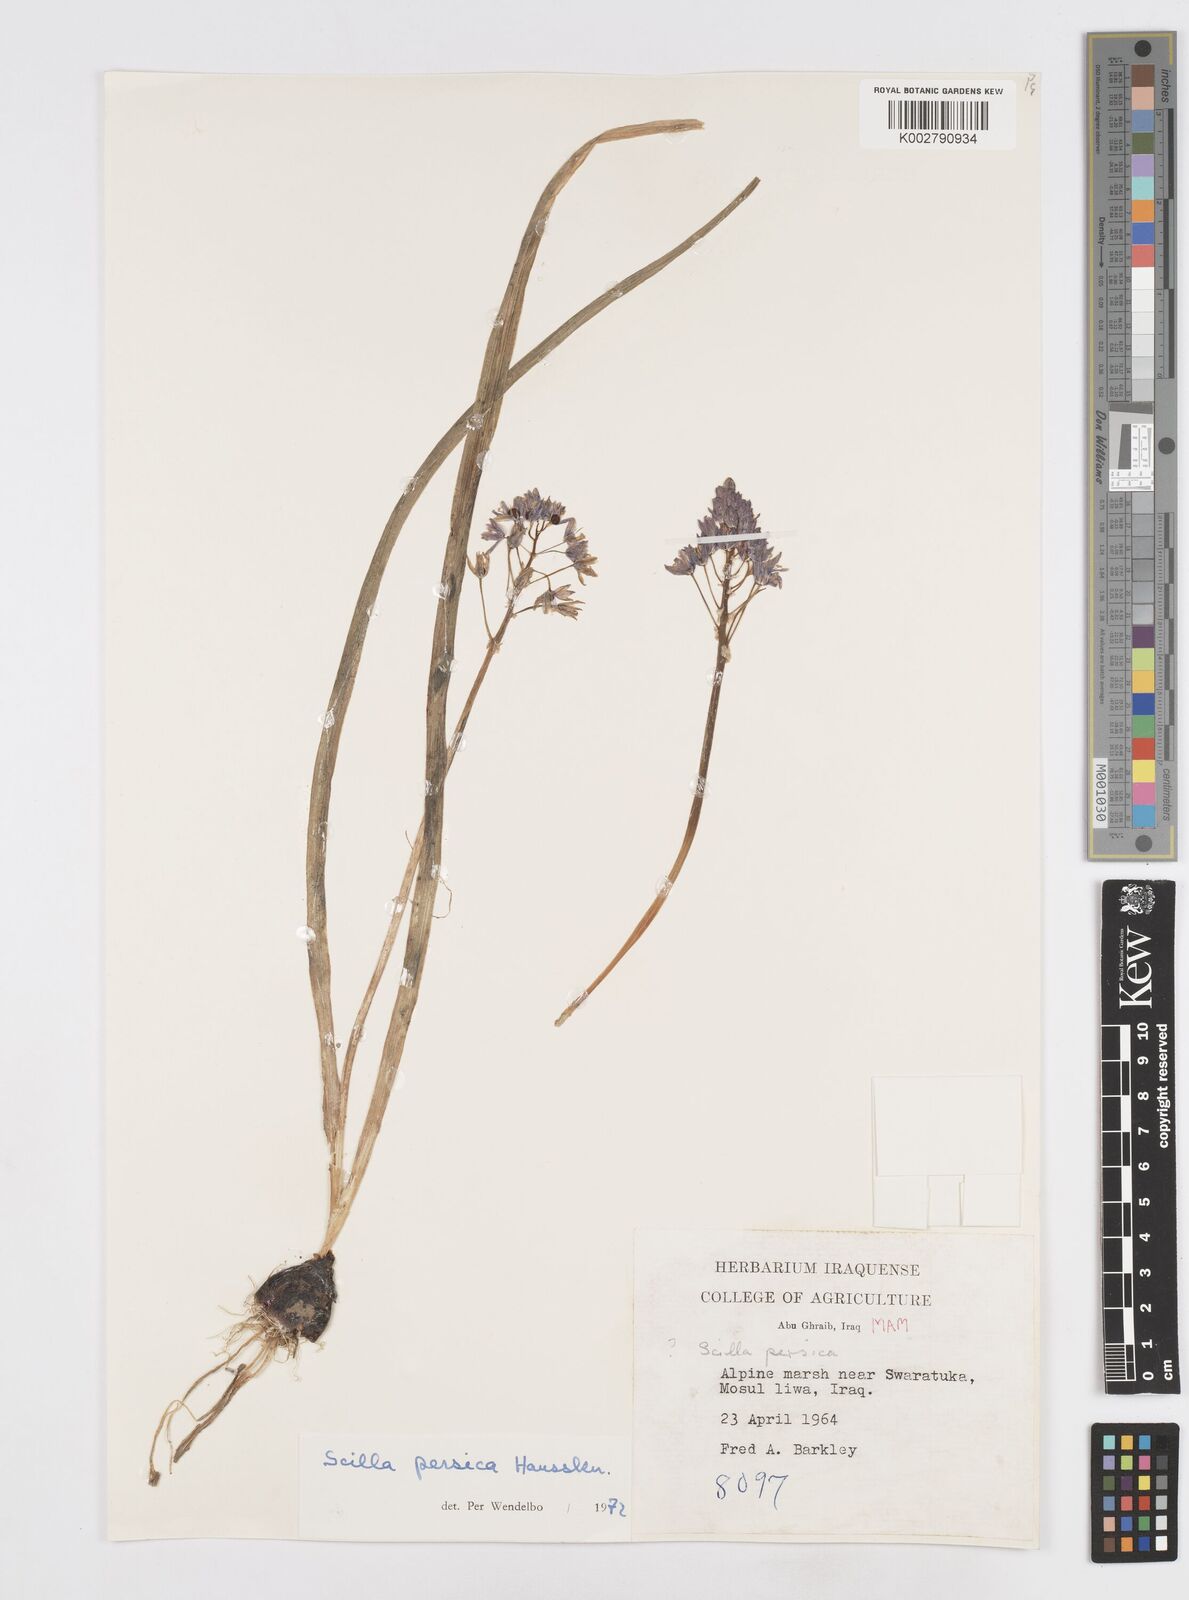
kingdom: Plantae
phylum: Tracheophyta
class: Liliopsida
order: Asparagales
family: Asparagaceae
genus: Zagrosia
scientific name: Zagrosia persica
